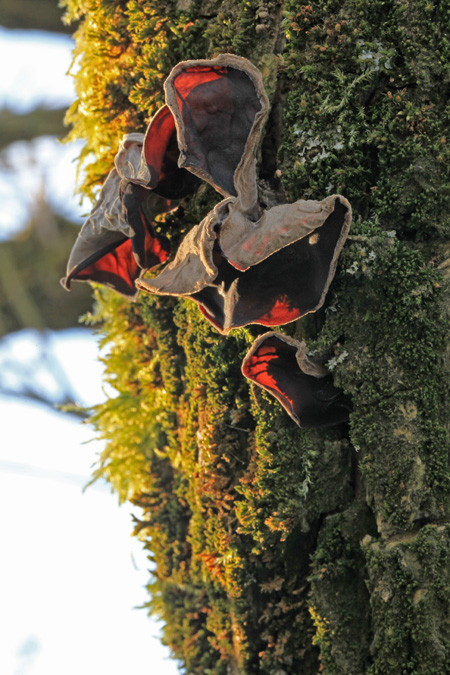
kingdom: Fungi
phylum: Basidiomycota
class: Agaricomycetes
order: Auriculariales
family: Auriculariaceae
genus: Auricularia
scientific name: Auricularia auricula-judae
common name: almindelig judasøre
